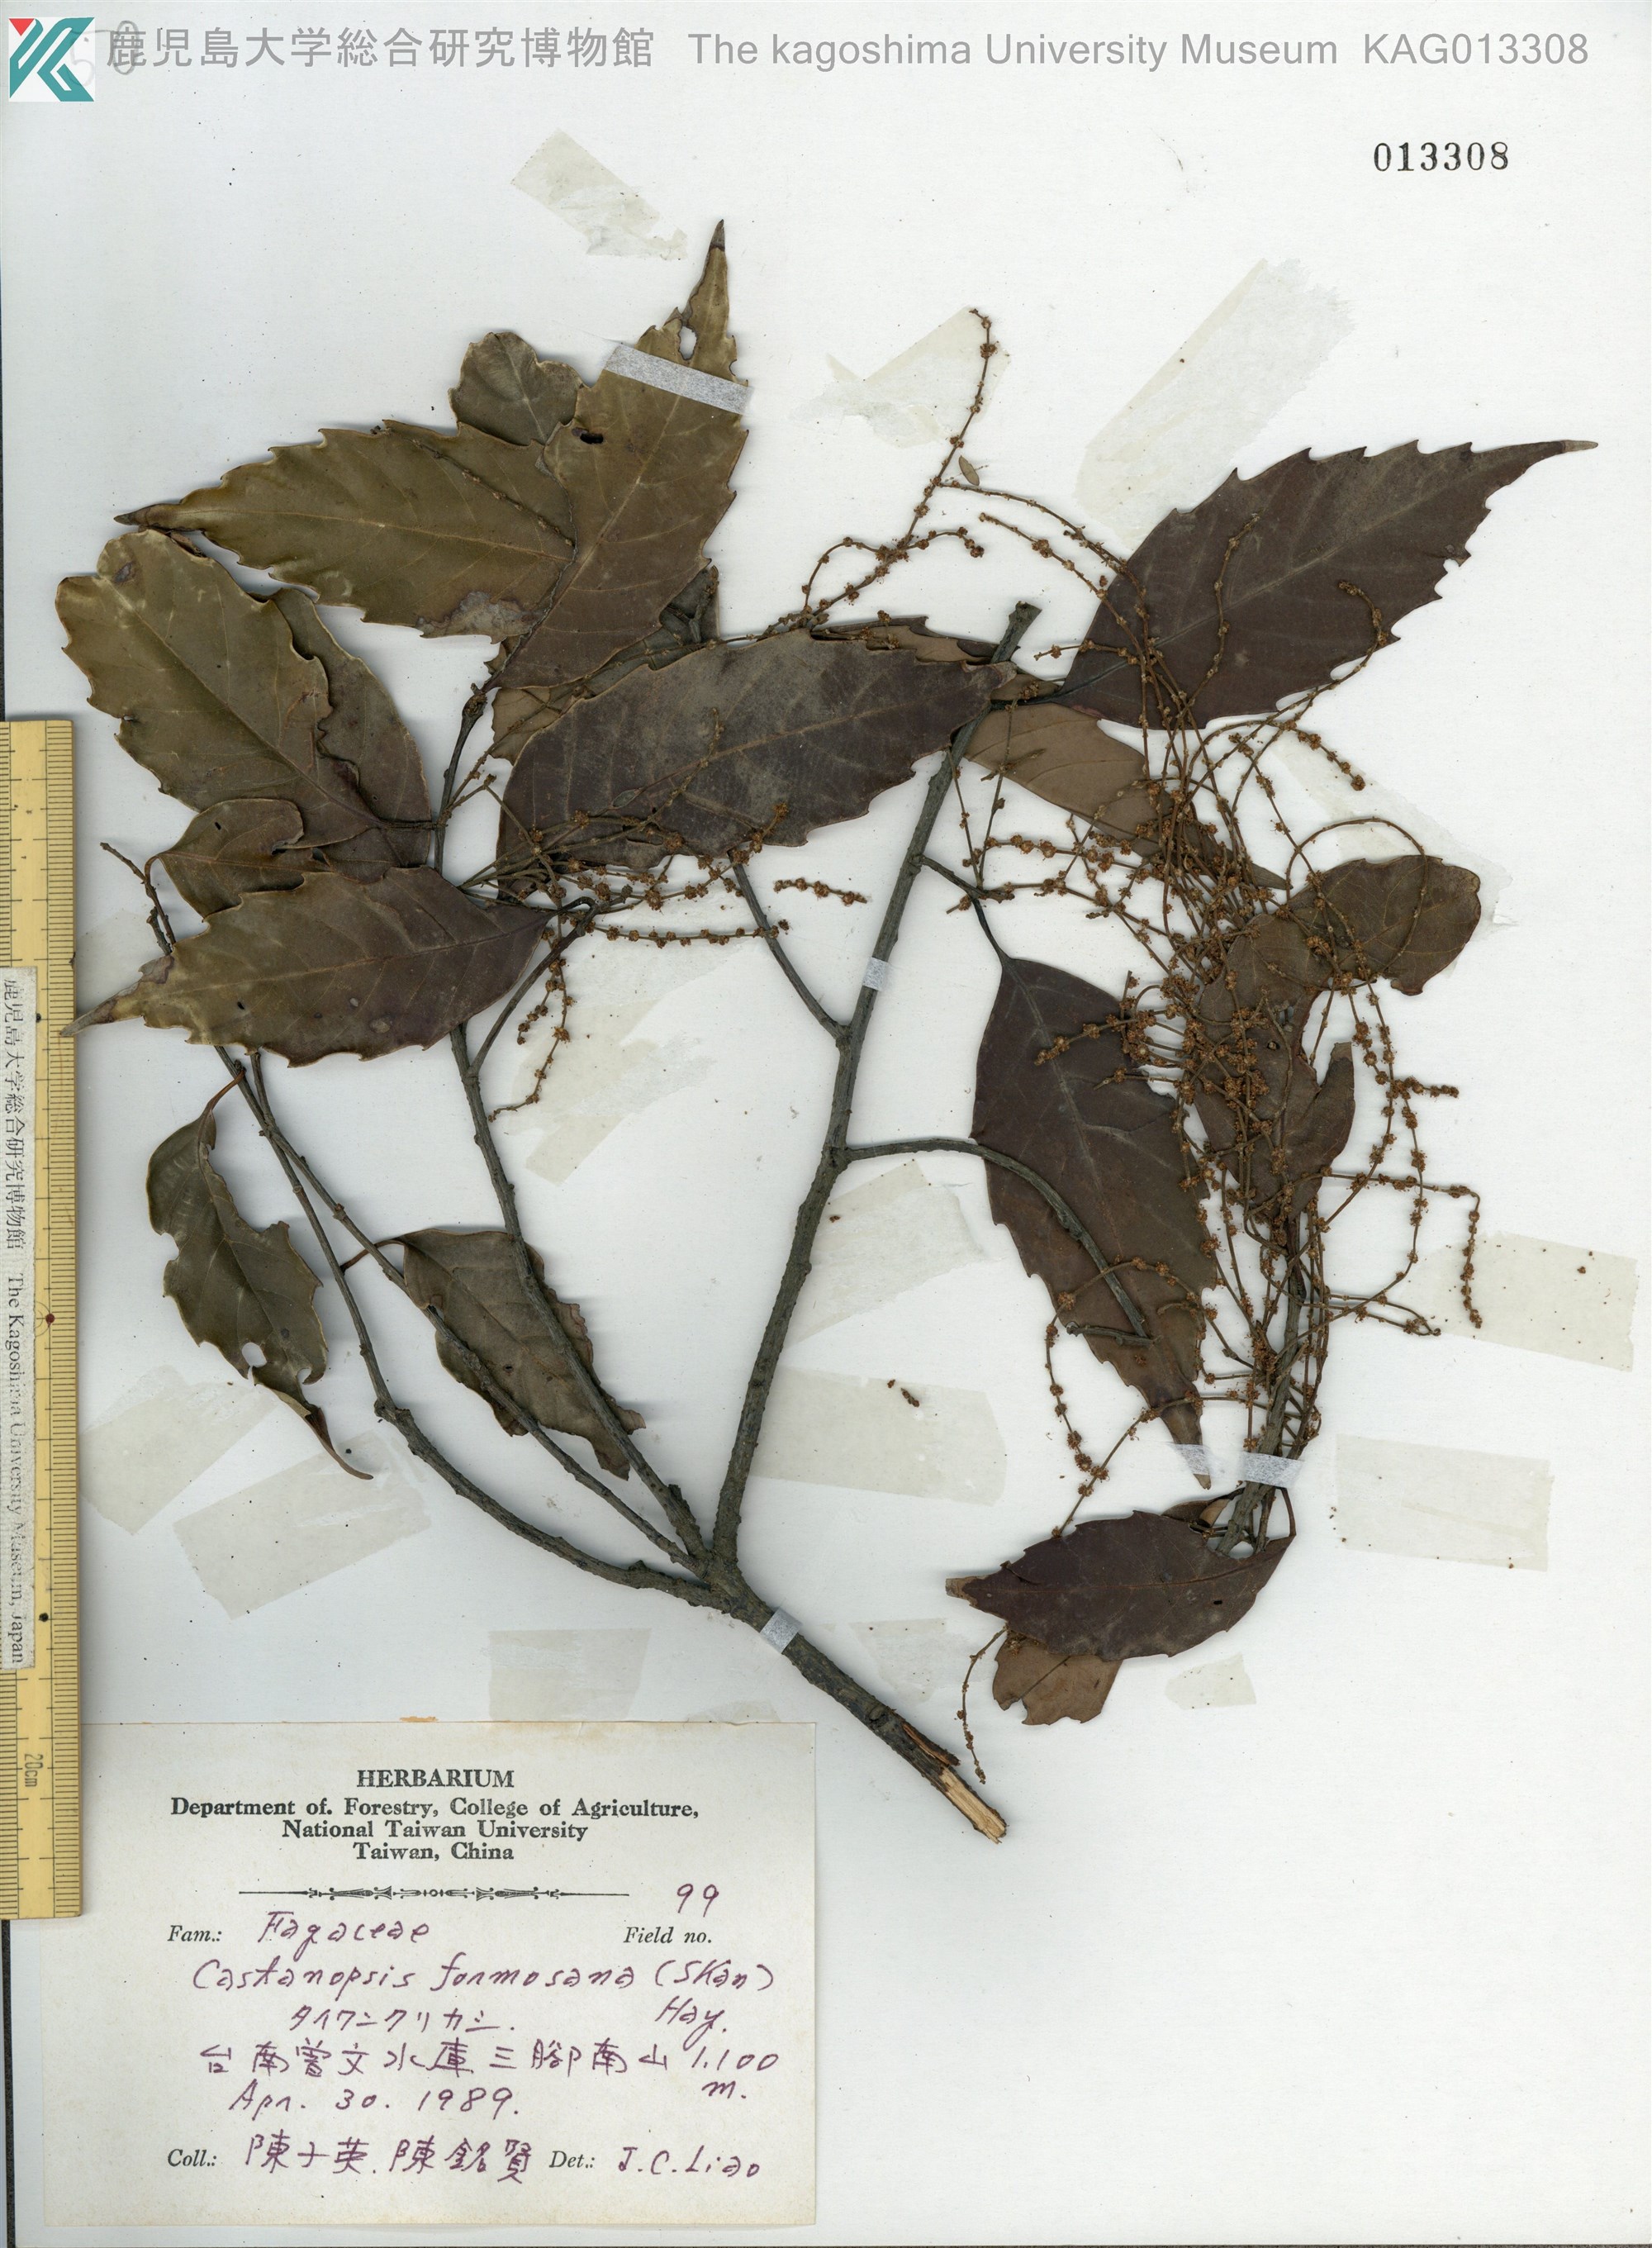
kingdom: Plantae
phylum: Tracheophyta
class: Magnoliopsida
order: Fagales
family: Fagaceae
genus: Castanopsis
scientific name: Castanopsis formosana
